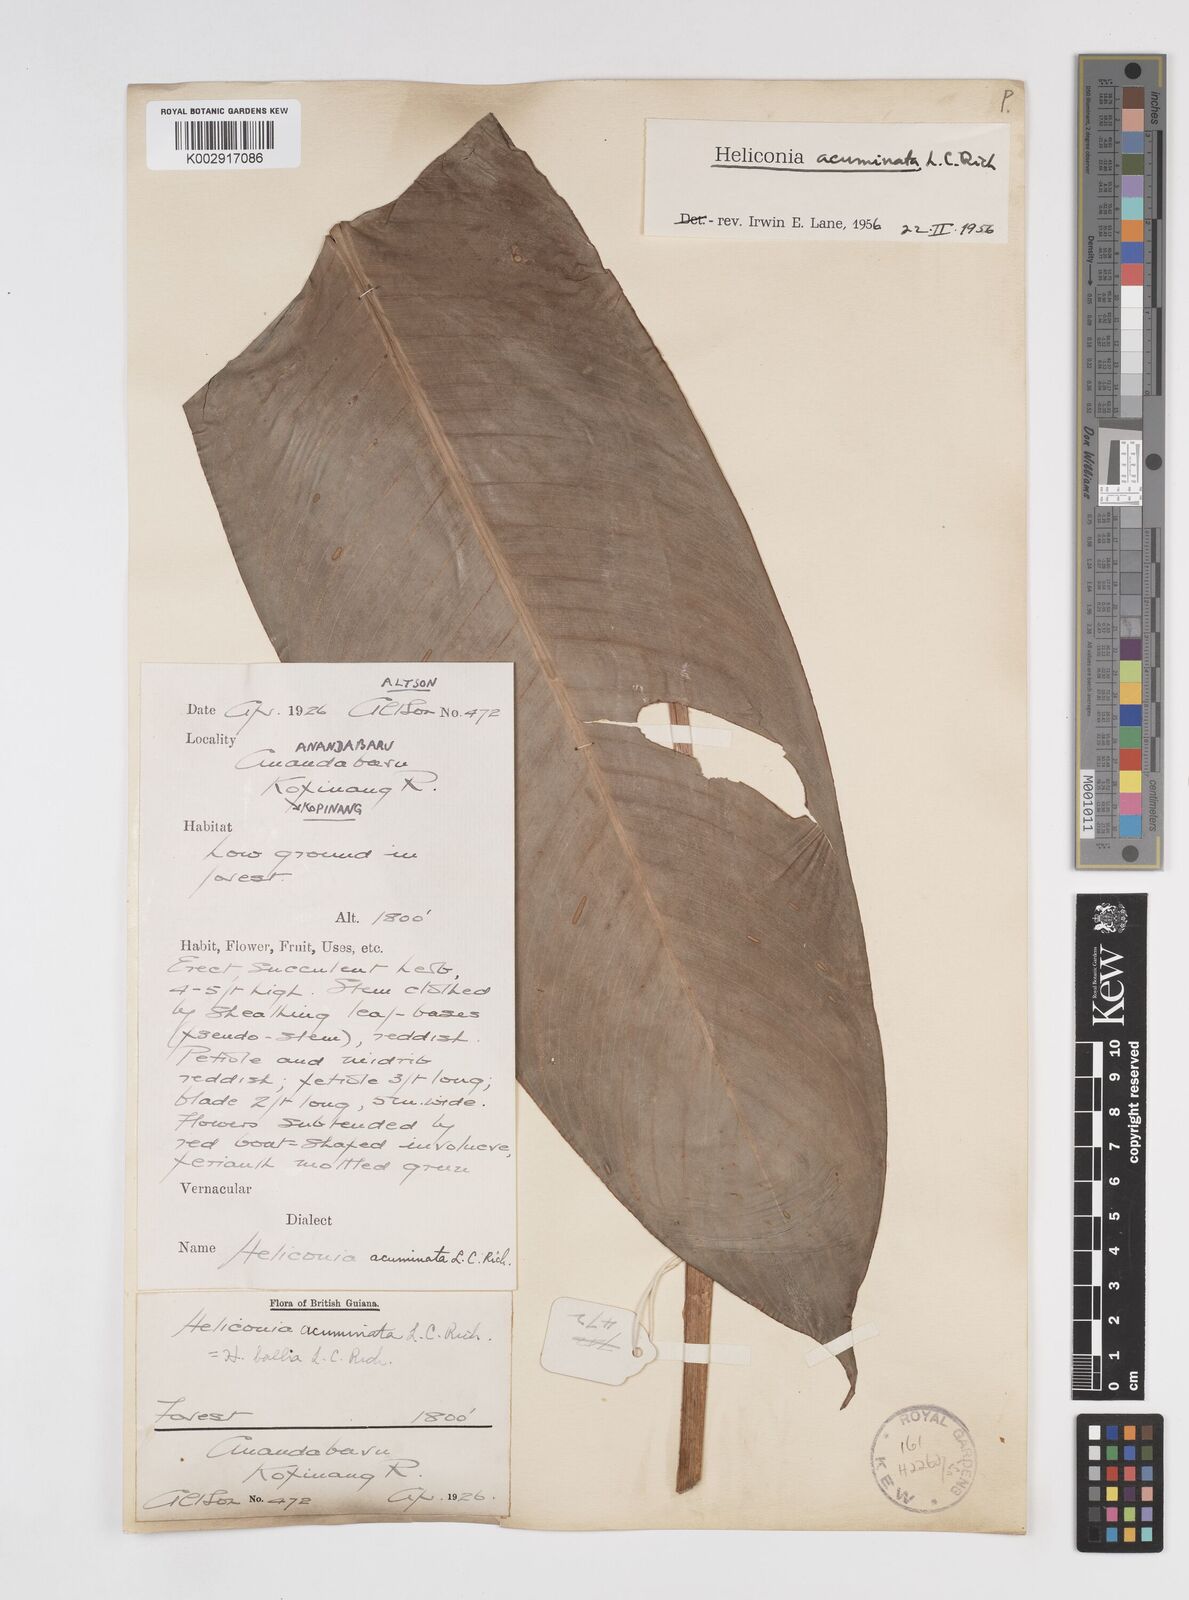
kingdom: Plantae
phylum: Tracheophyta
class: Liliopsida
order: Zingiberales
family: Heliconiaceae
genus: Heliconia
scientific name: Heliconia acuminata
